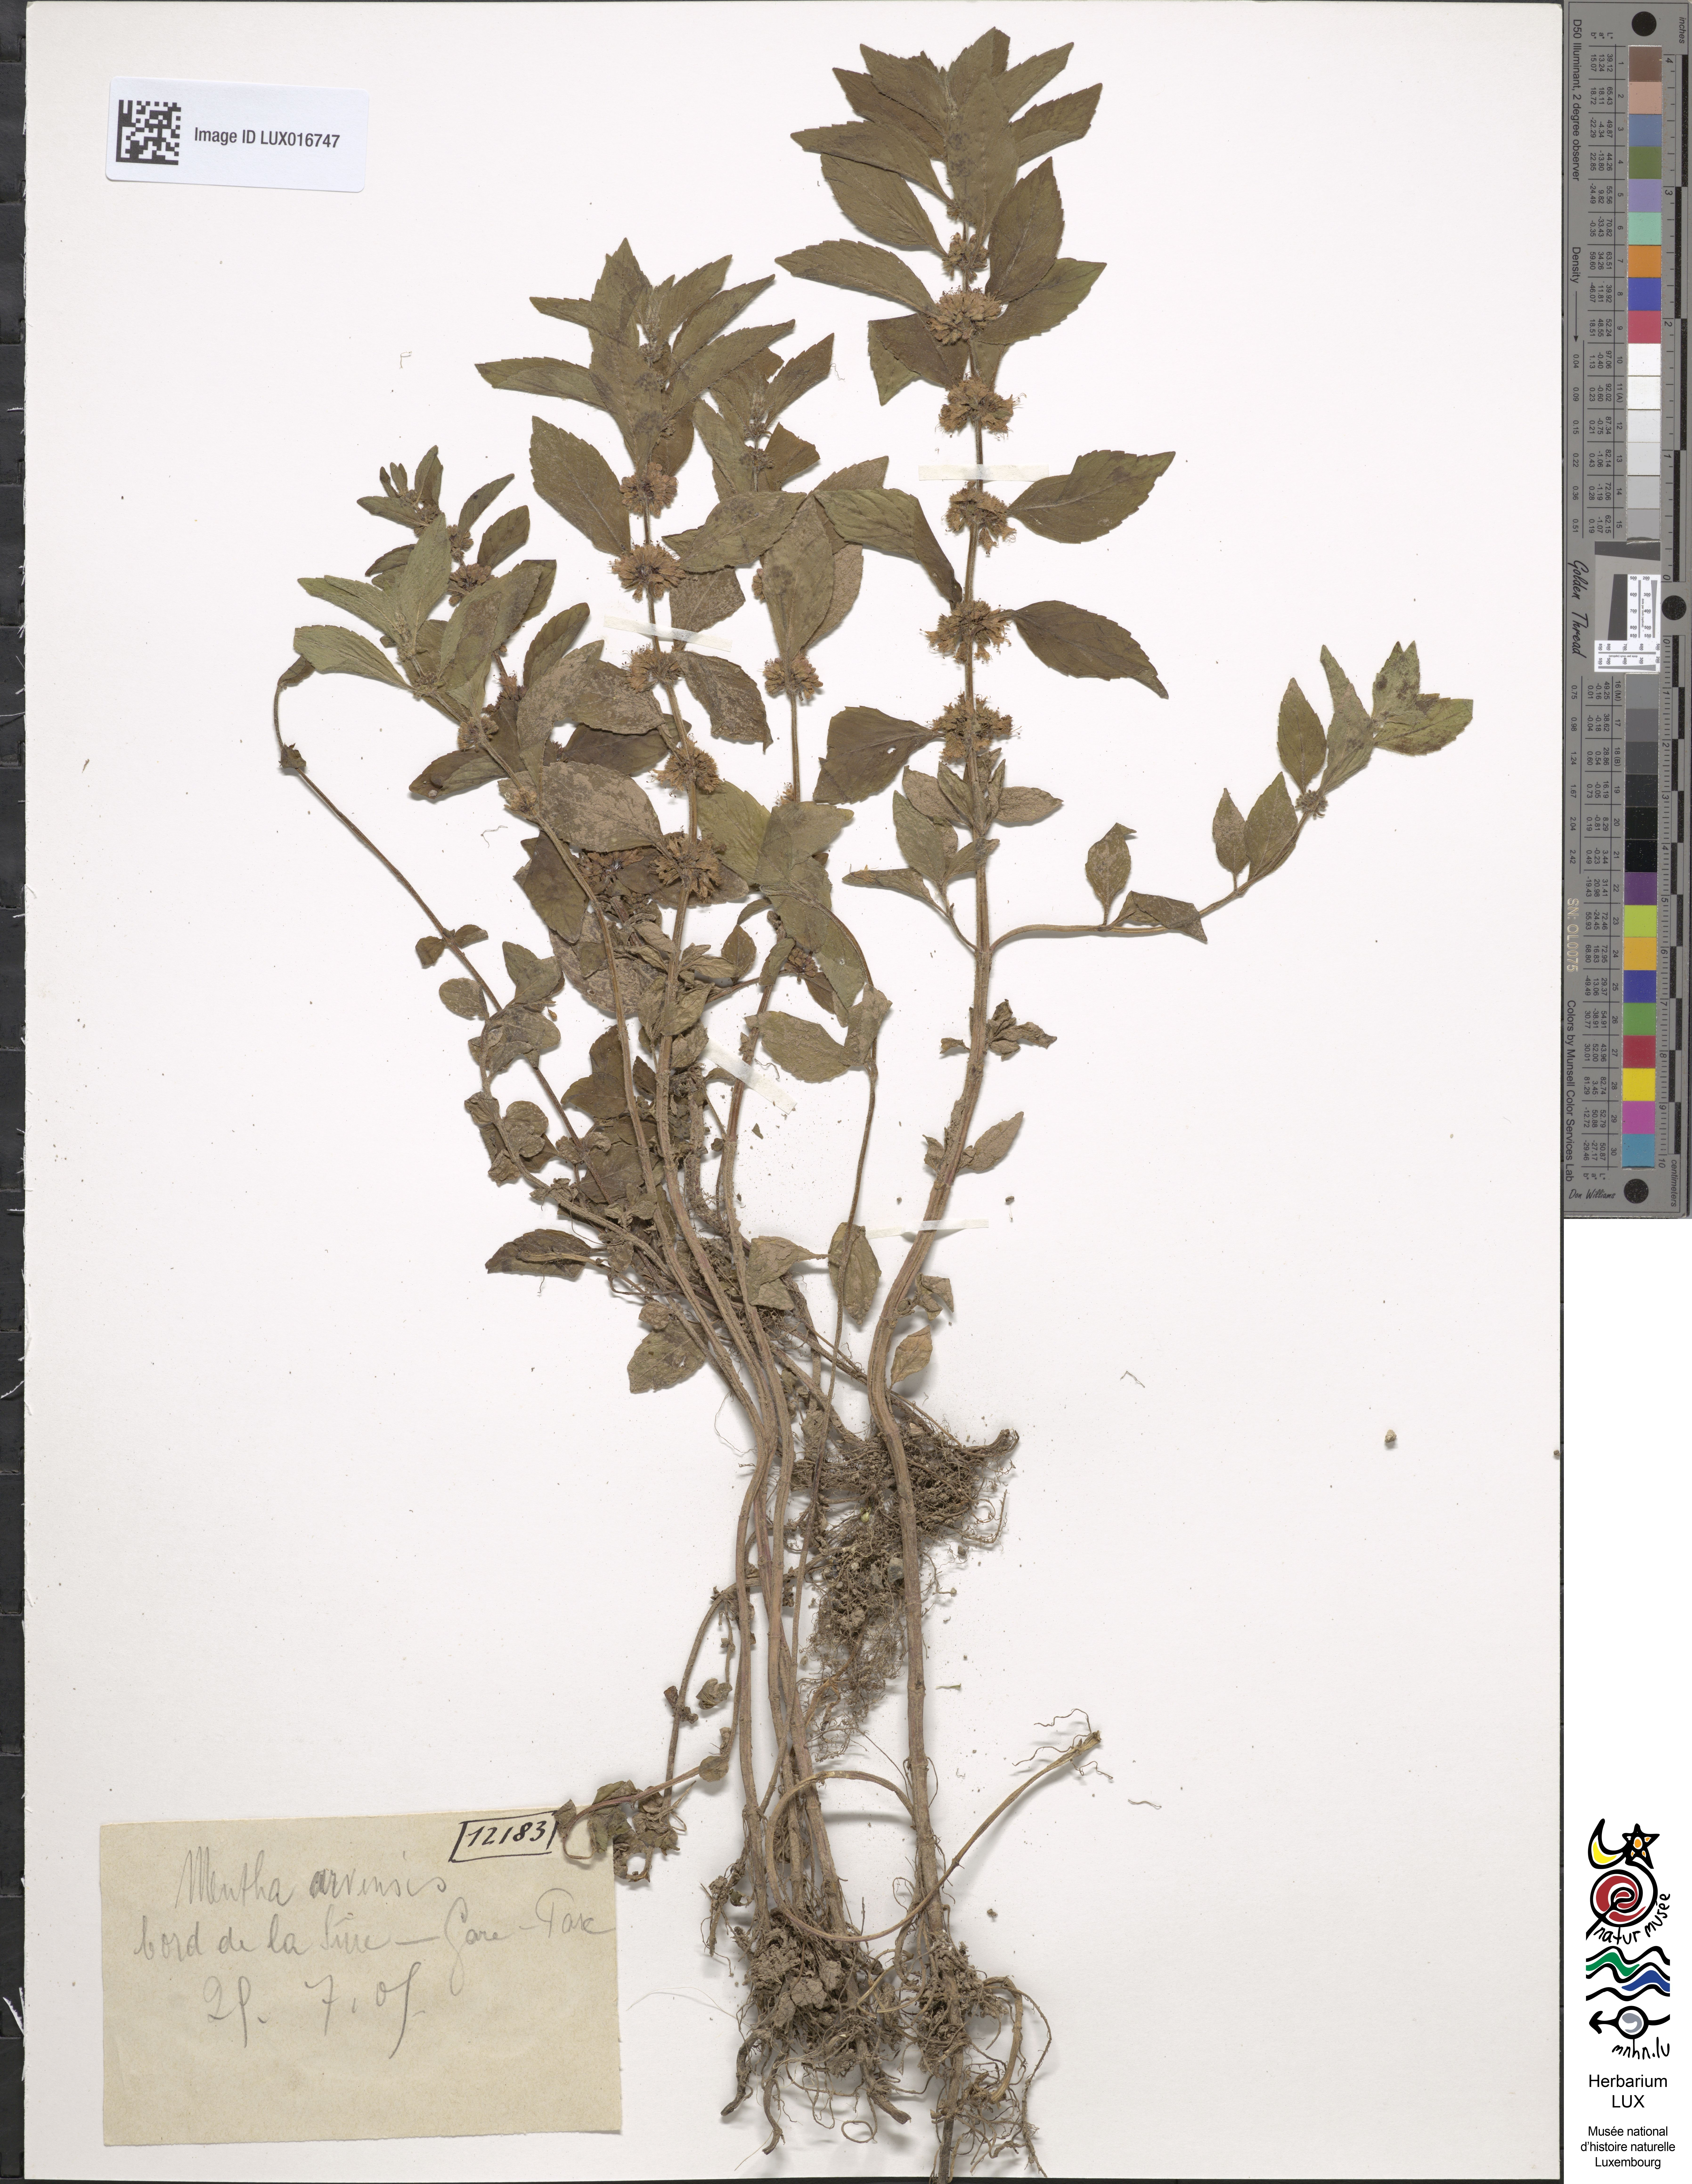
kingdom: Plantae
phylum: Tracheophyta
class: Magnoliopsida
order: Lamiales
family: Lamiaceae
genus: Mentha
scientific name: Mentha arvensis
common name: Corn mint
